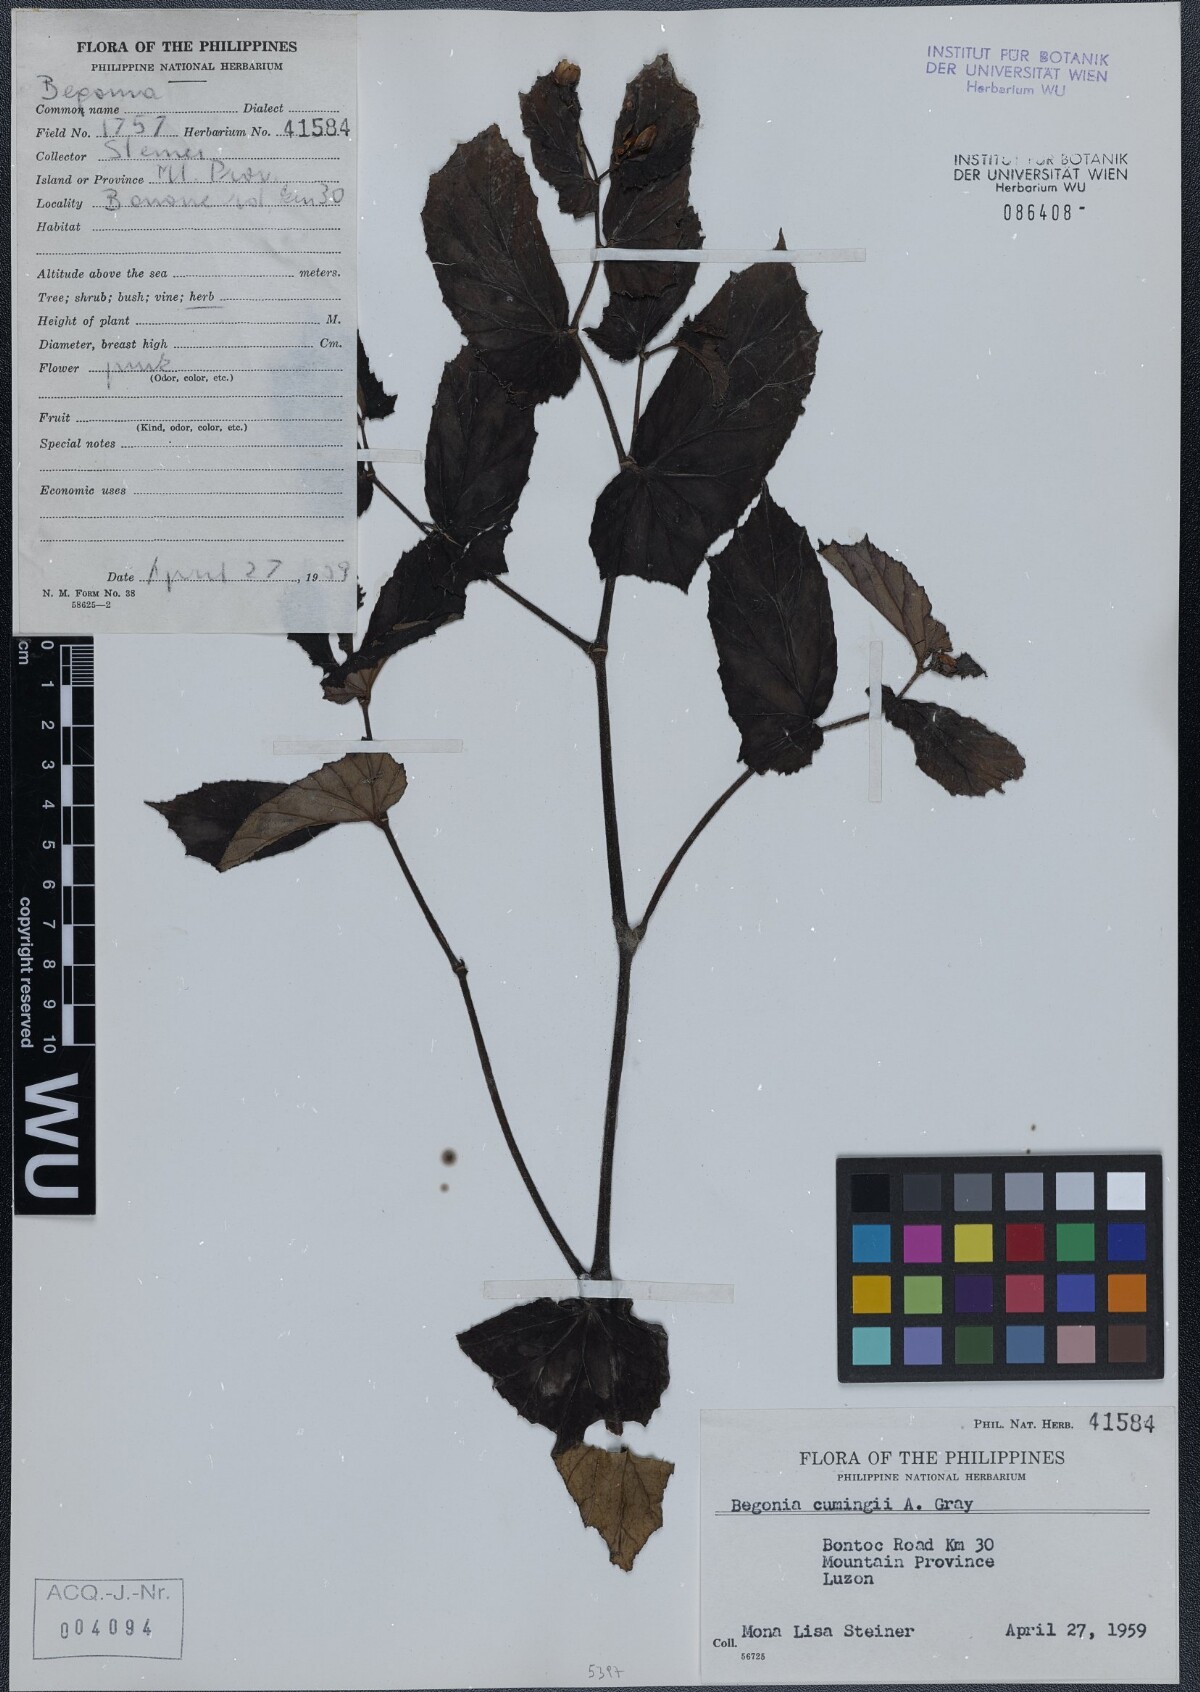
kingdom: Plantae
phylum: Tracheophyta
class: Magnoliopsida
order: Cucurbitales
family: Begoniaceae
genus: Begonia
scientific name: Begonia cumingii
